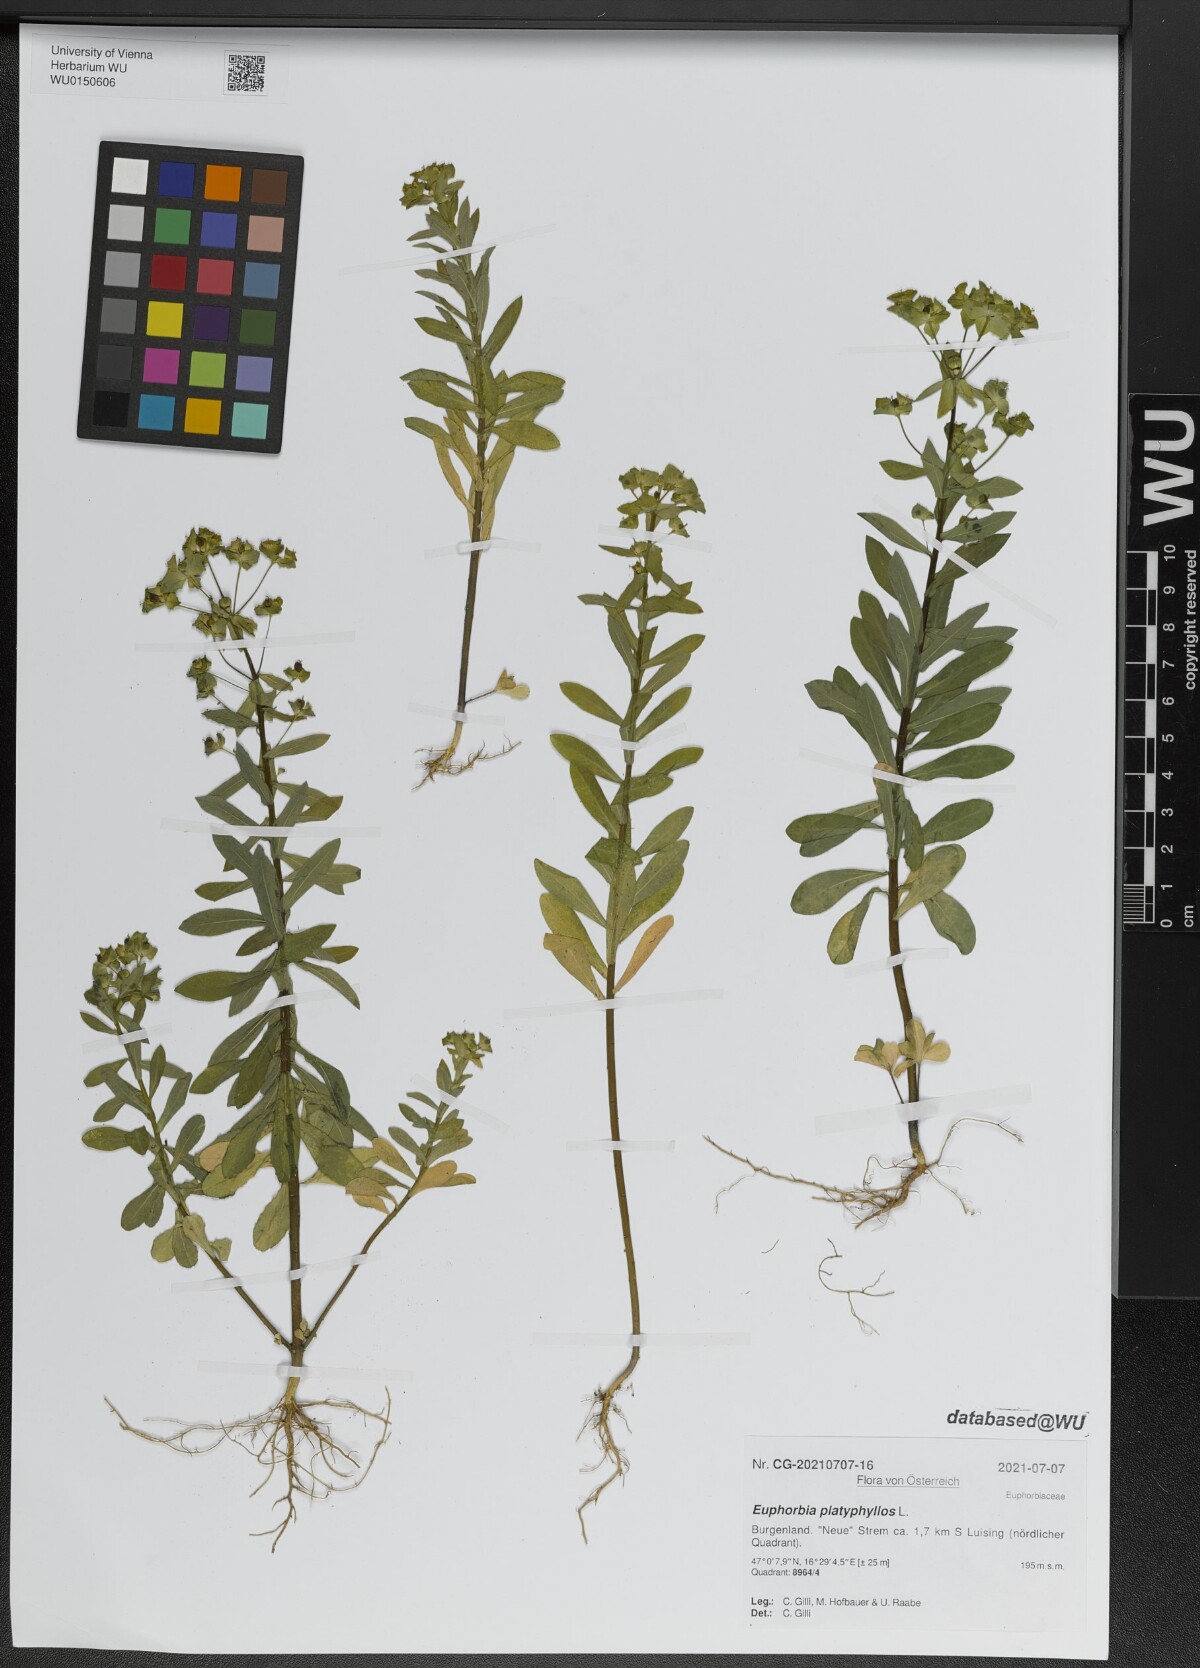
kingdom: Plantae
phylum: Tracheophyta
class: Magnoliopsida
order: Malpighiales
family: Euphorbiaceae
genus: Euphorbia
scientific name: Euphorbia platyphyllos
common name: Broad-leaved spurge
